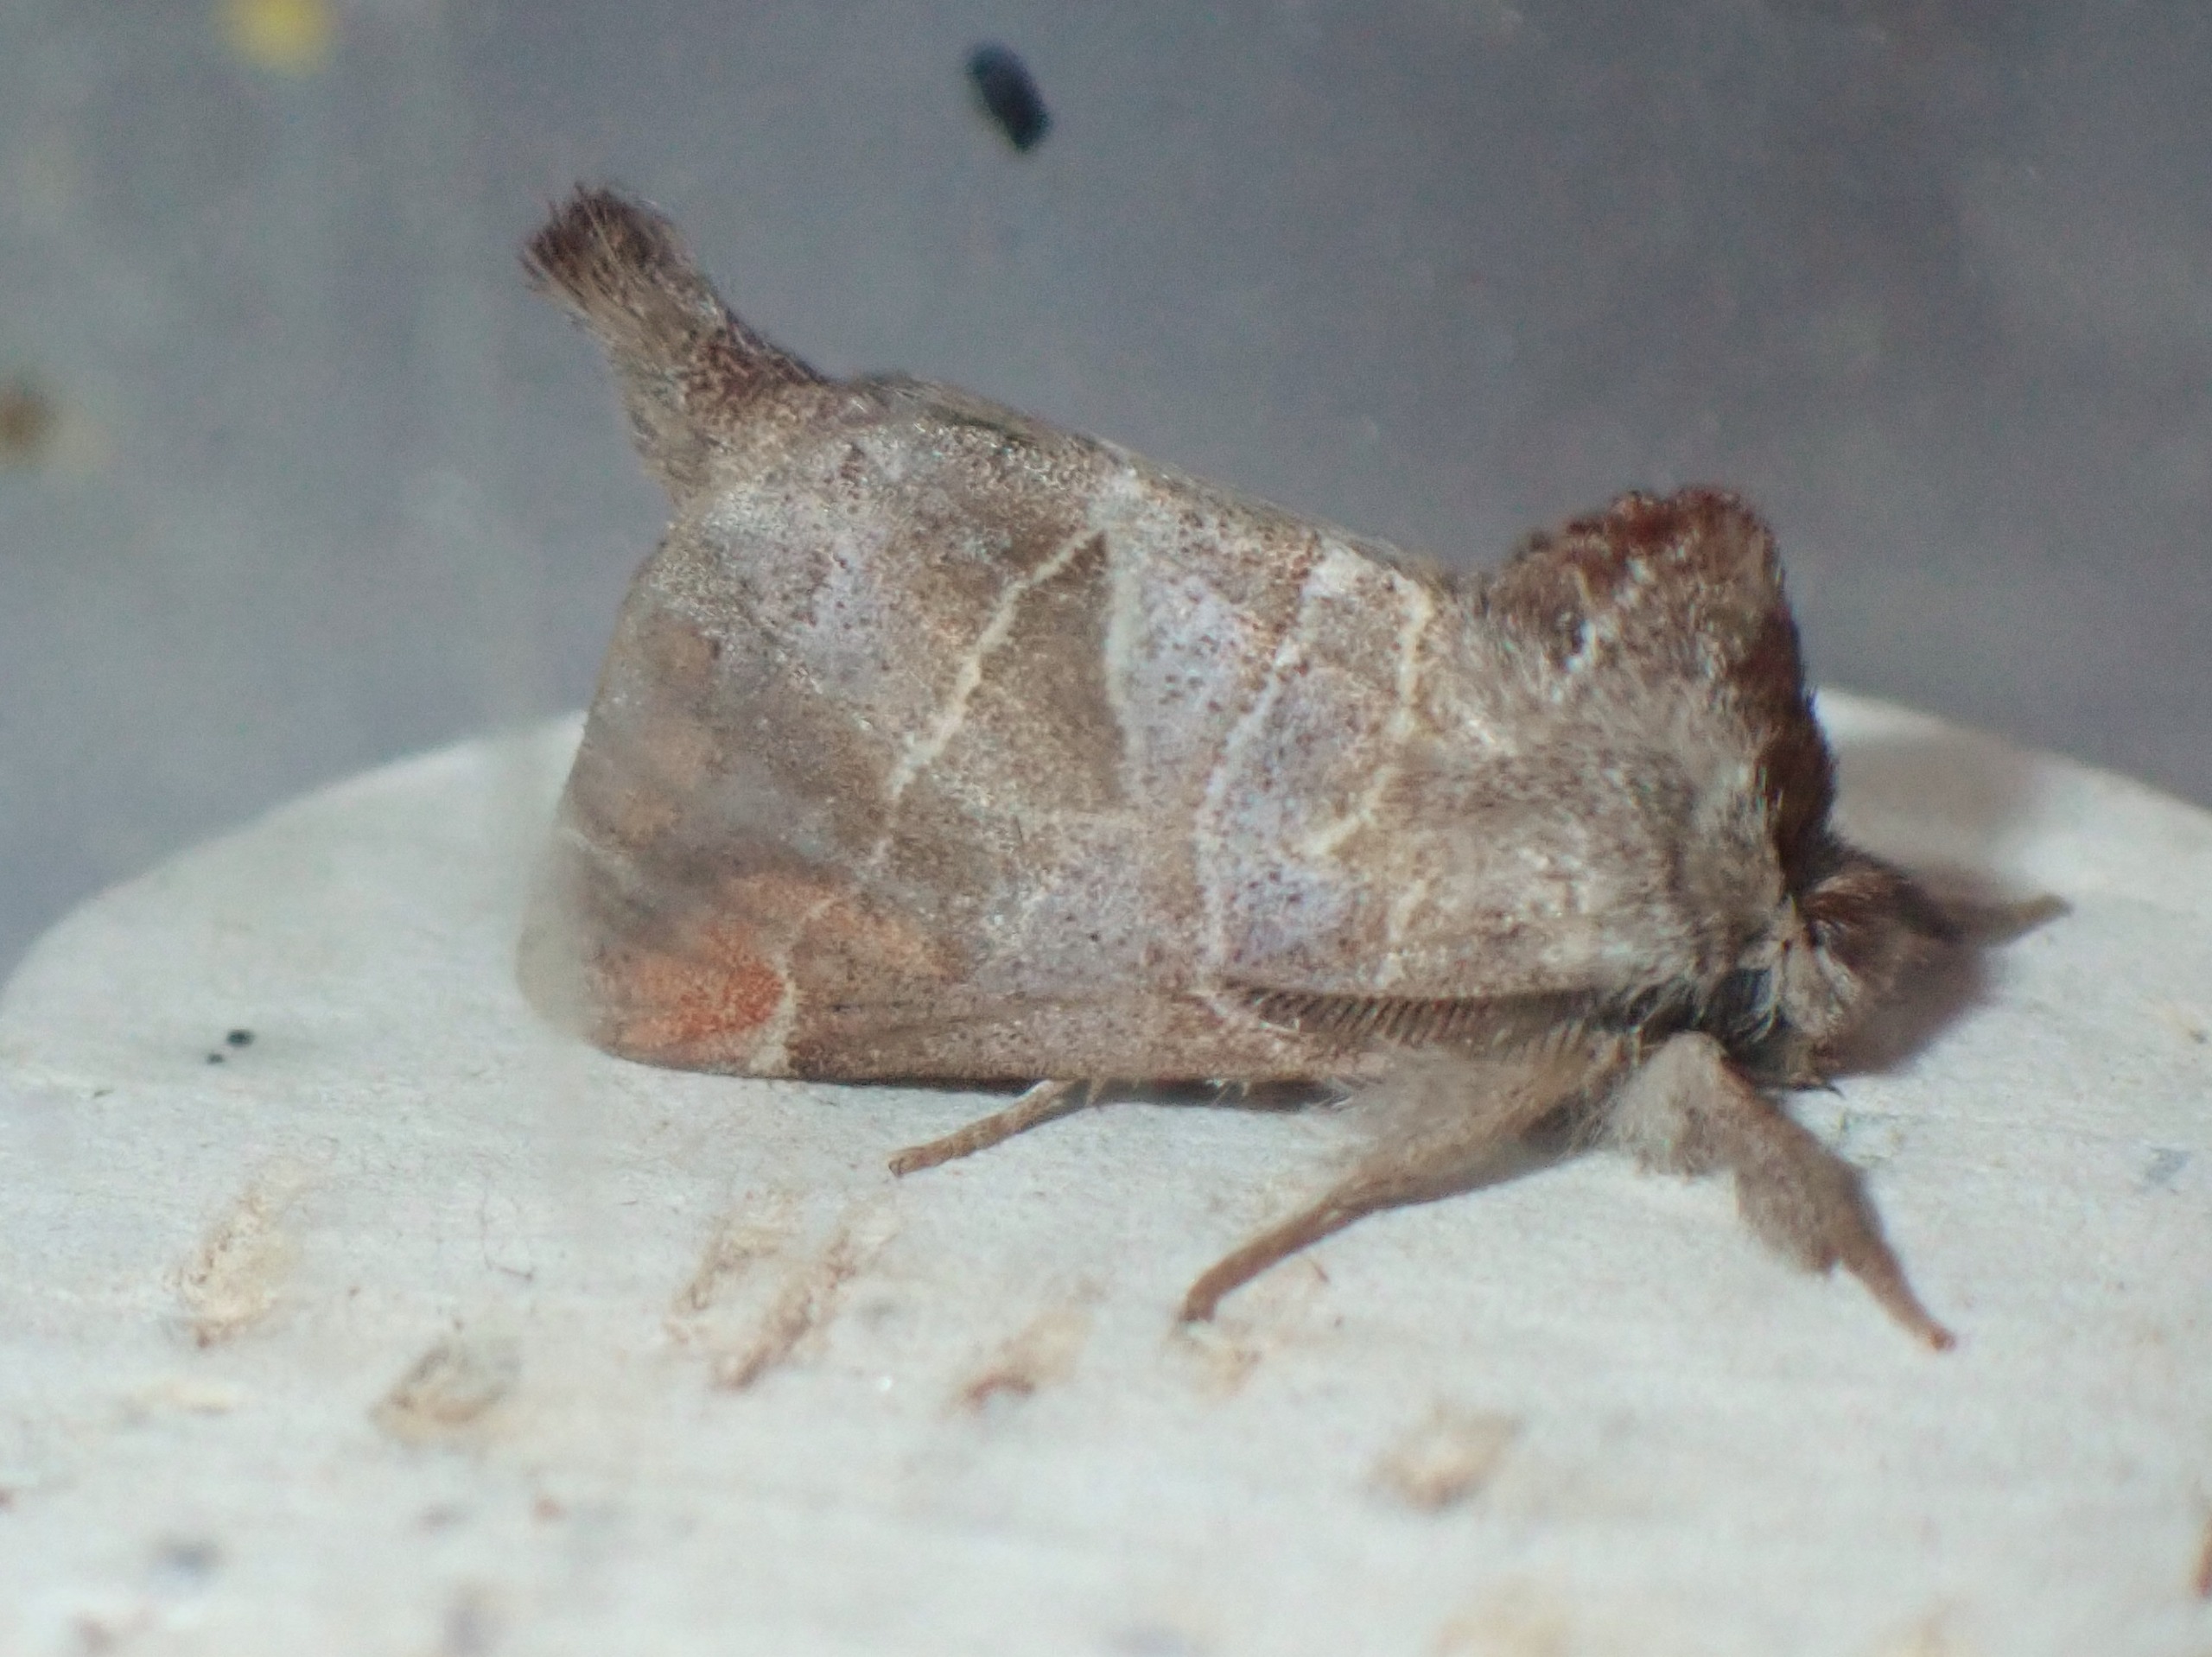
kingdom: Animalia
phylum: Arthropoda
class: Insecta
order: Lepidoptera
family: Notodontidae
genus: Clostera
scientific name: Clostera pigra
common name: Chokoladeplet
